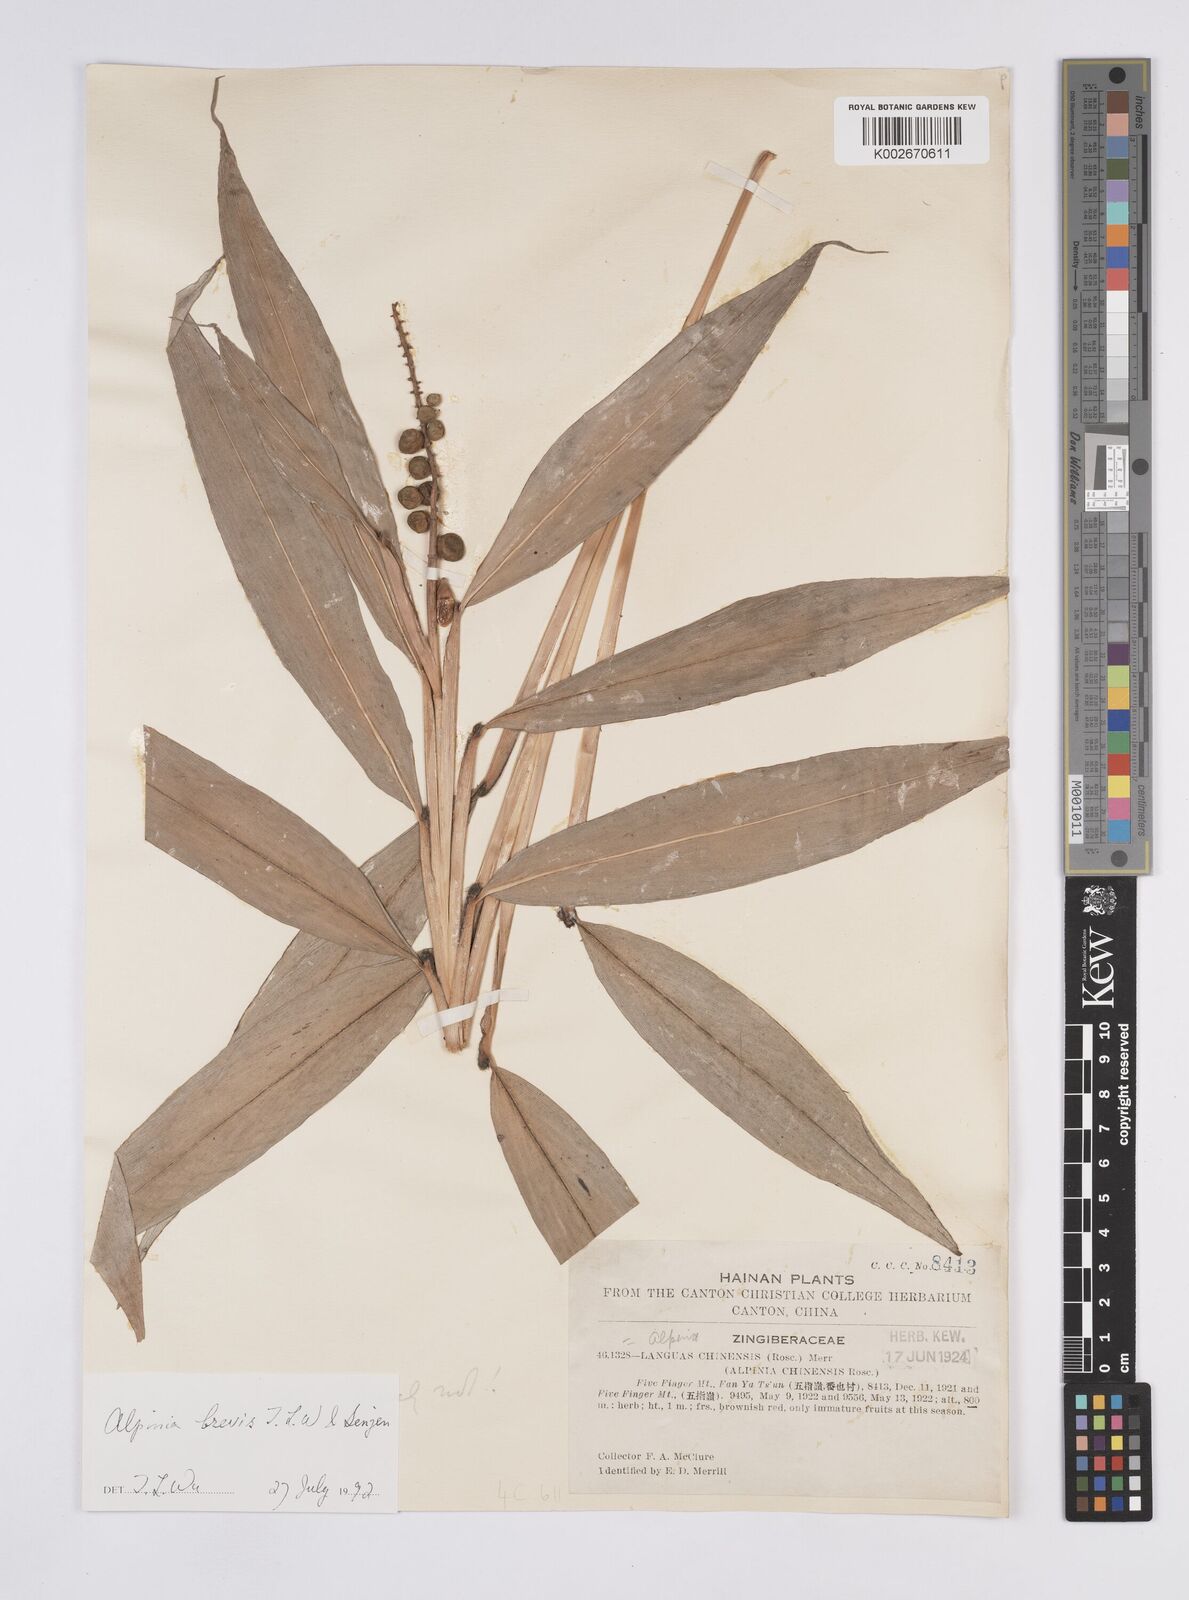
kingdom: Plantae
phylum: Tracheophyta
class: Liliopsida
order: Zingiberales
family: Zingiberaceae
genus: Alpinia
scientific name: Alpinia brevis
